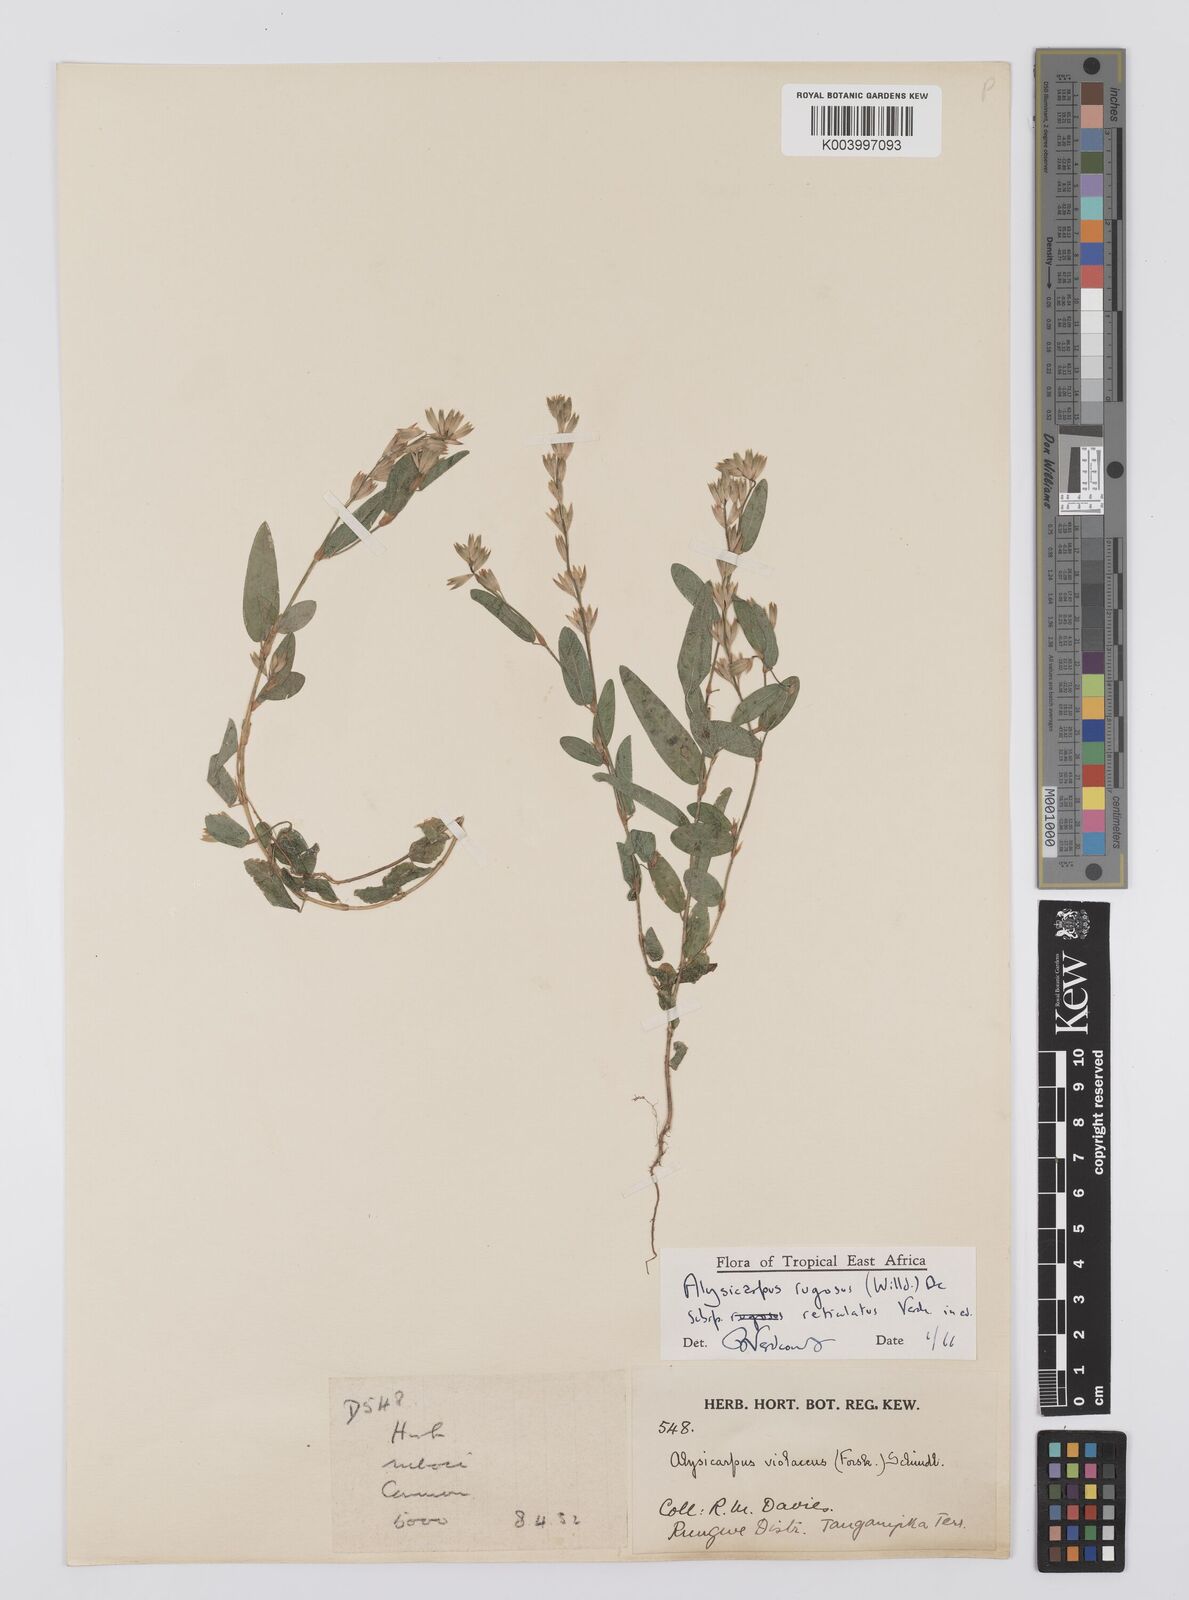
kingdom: Plantae
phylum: Tracheophyta
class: Magnoliopsida
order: Fabales
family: Fabaceae
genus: Alysicarpus
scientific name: Alysicarpus rugosus
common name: Red moneywort
